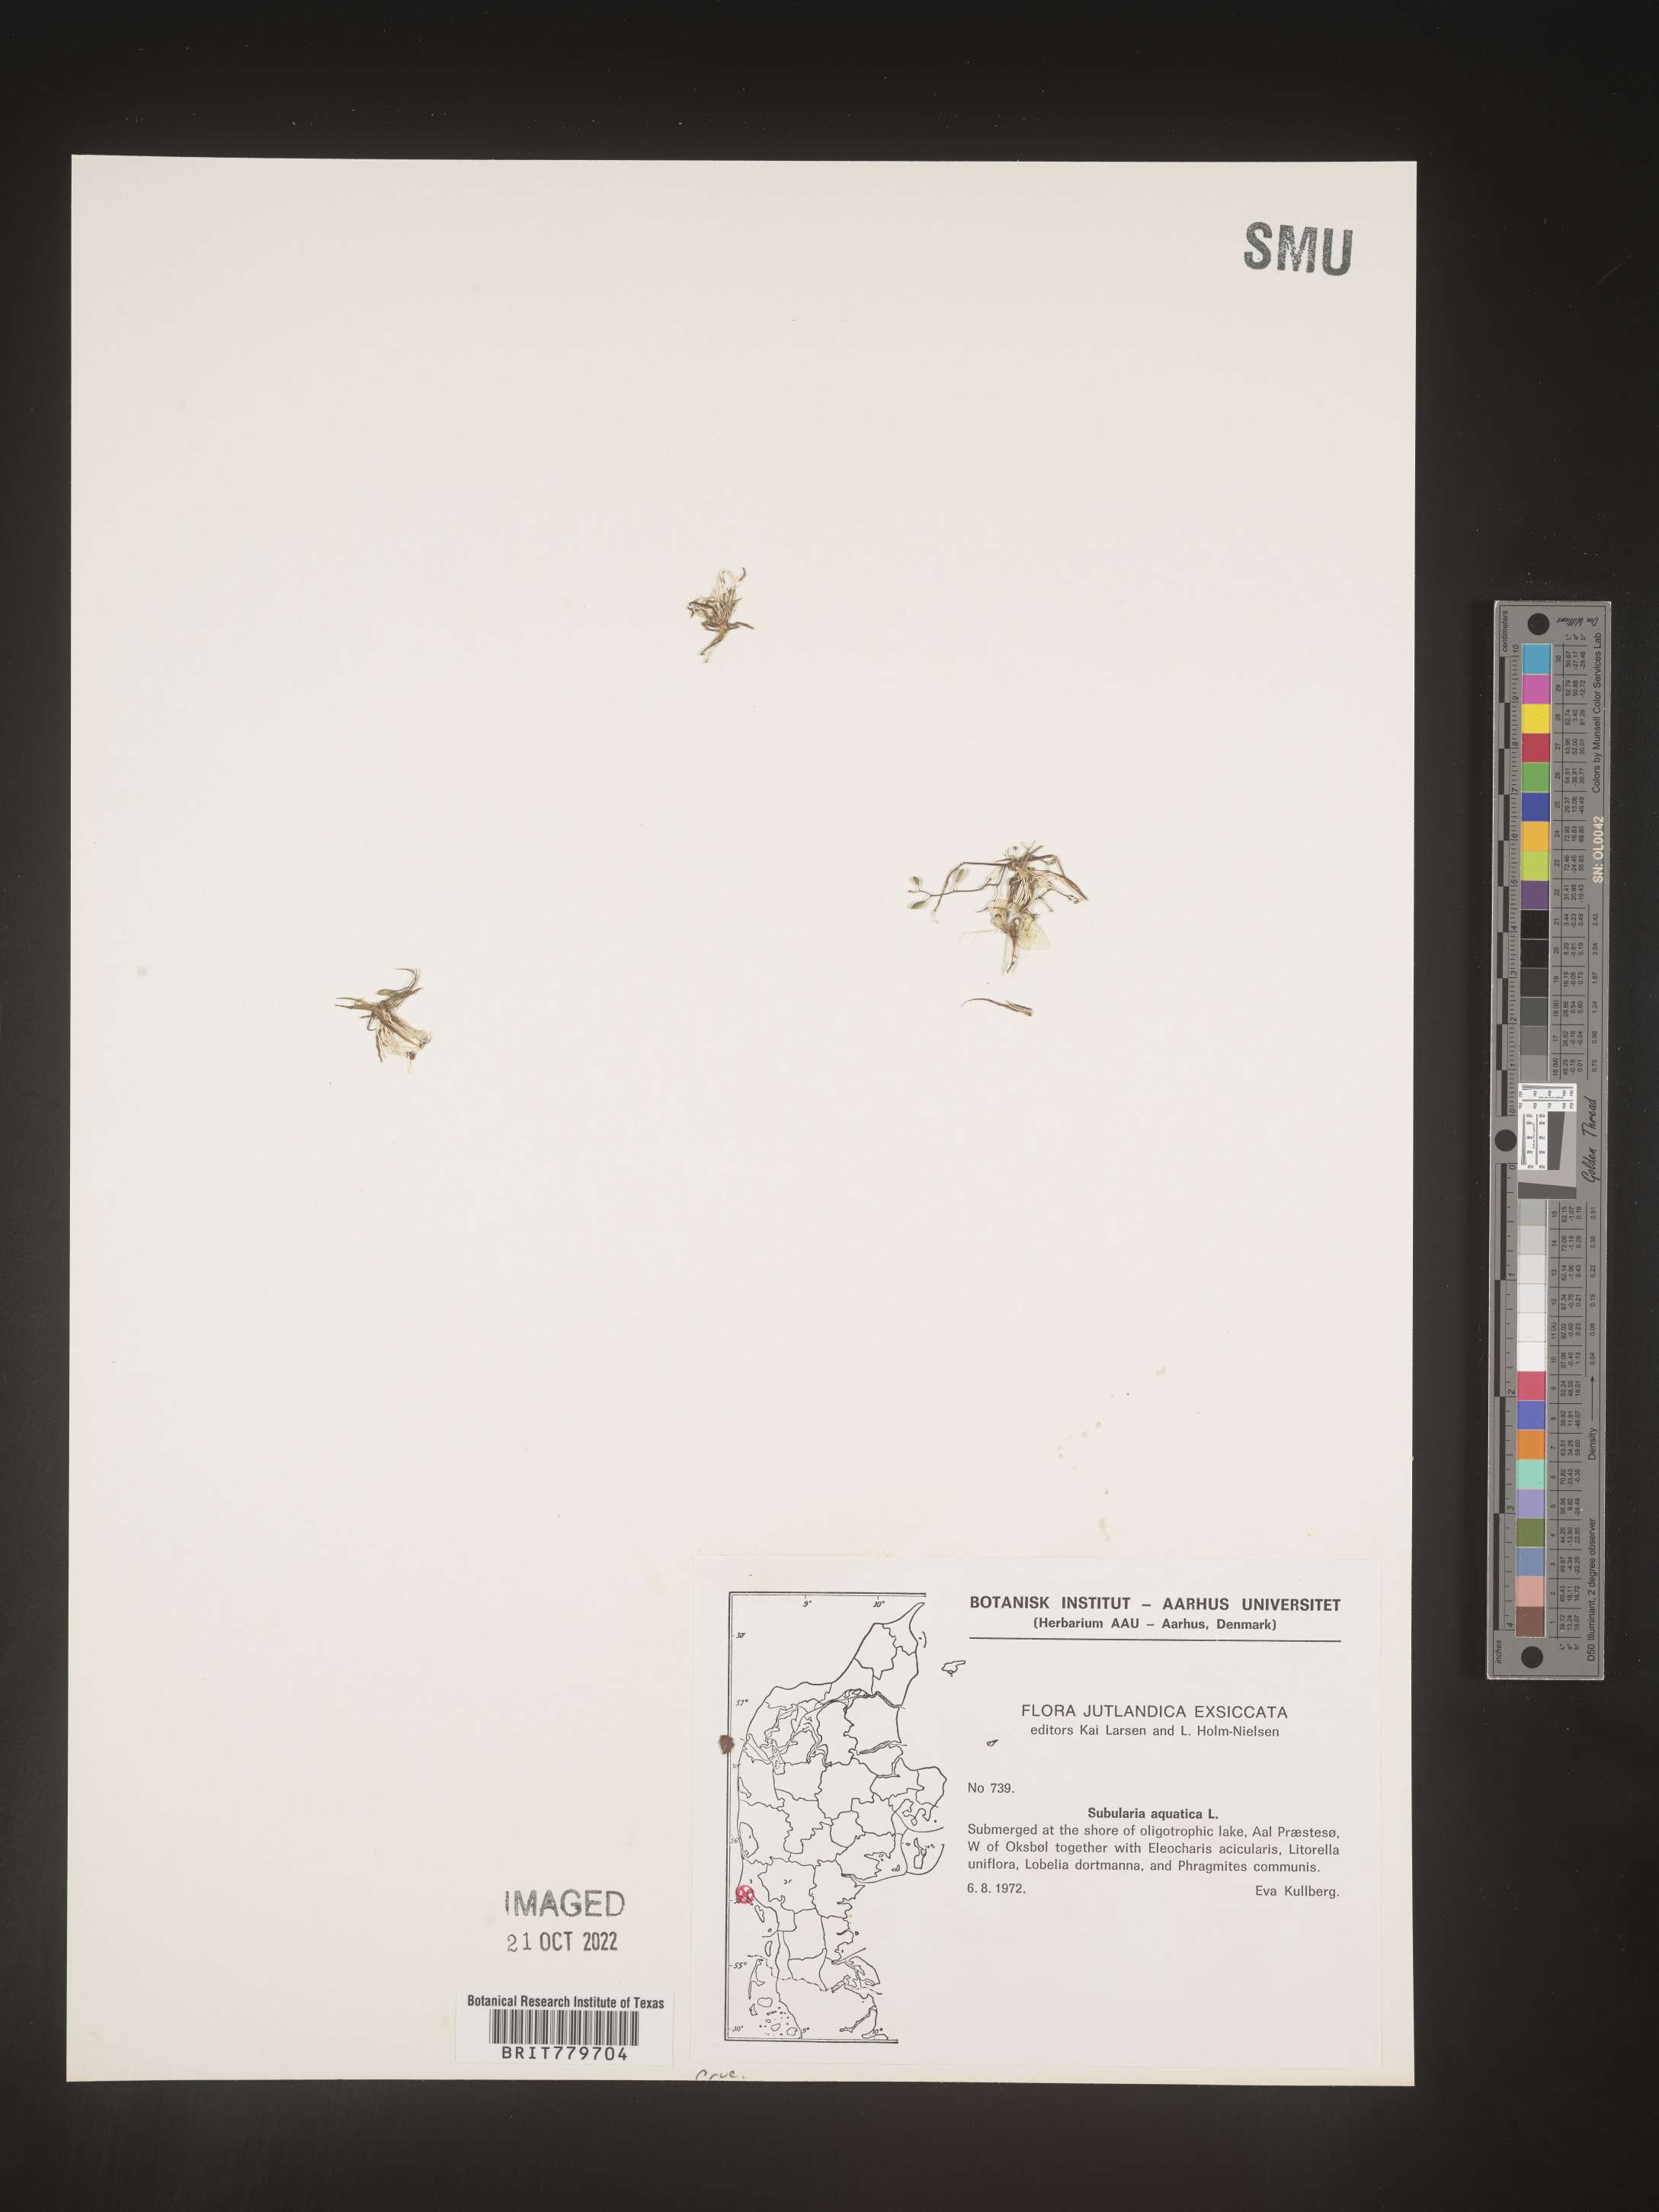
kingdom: Plantae
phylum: Tracheophyta
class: Magnoliopsida
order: Brassicales
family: Brassicaceae
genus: Subularia
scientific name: Subularia
